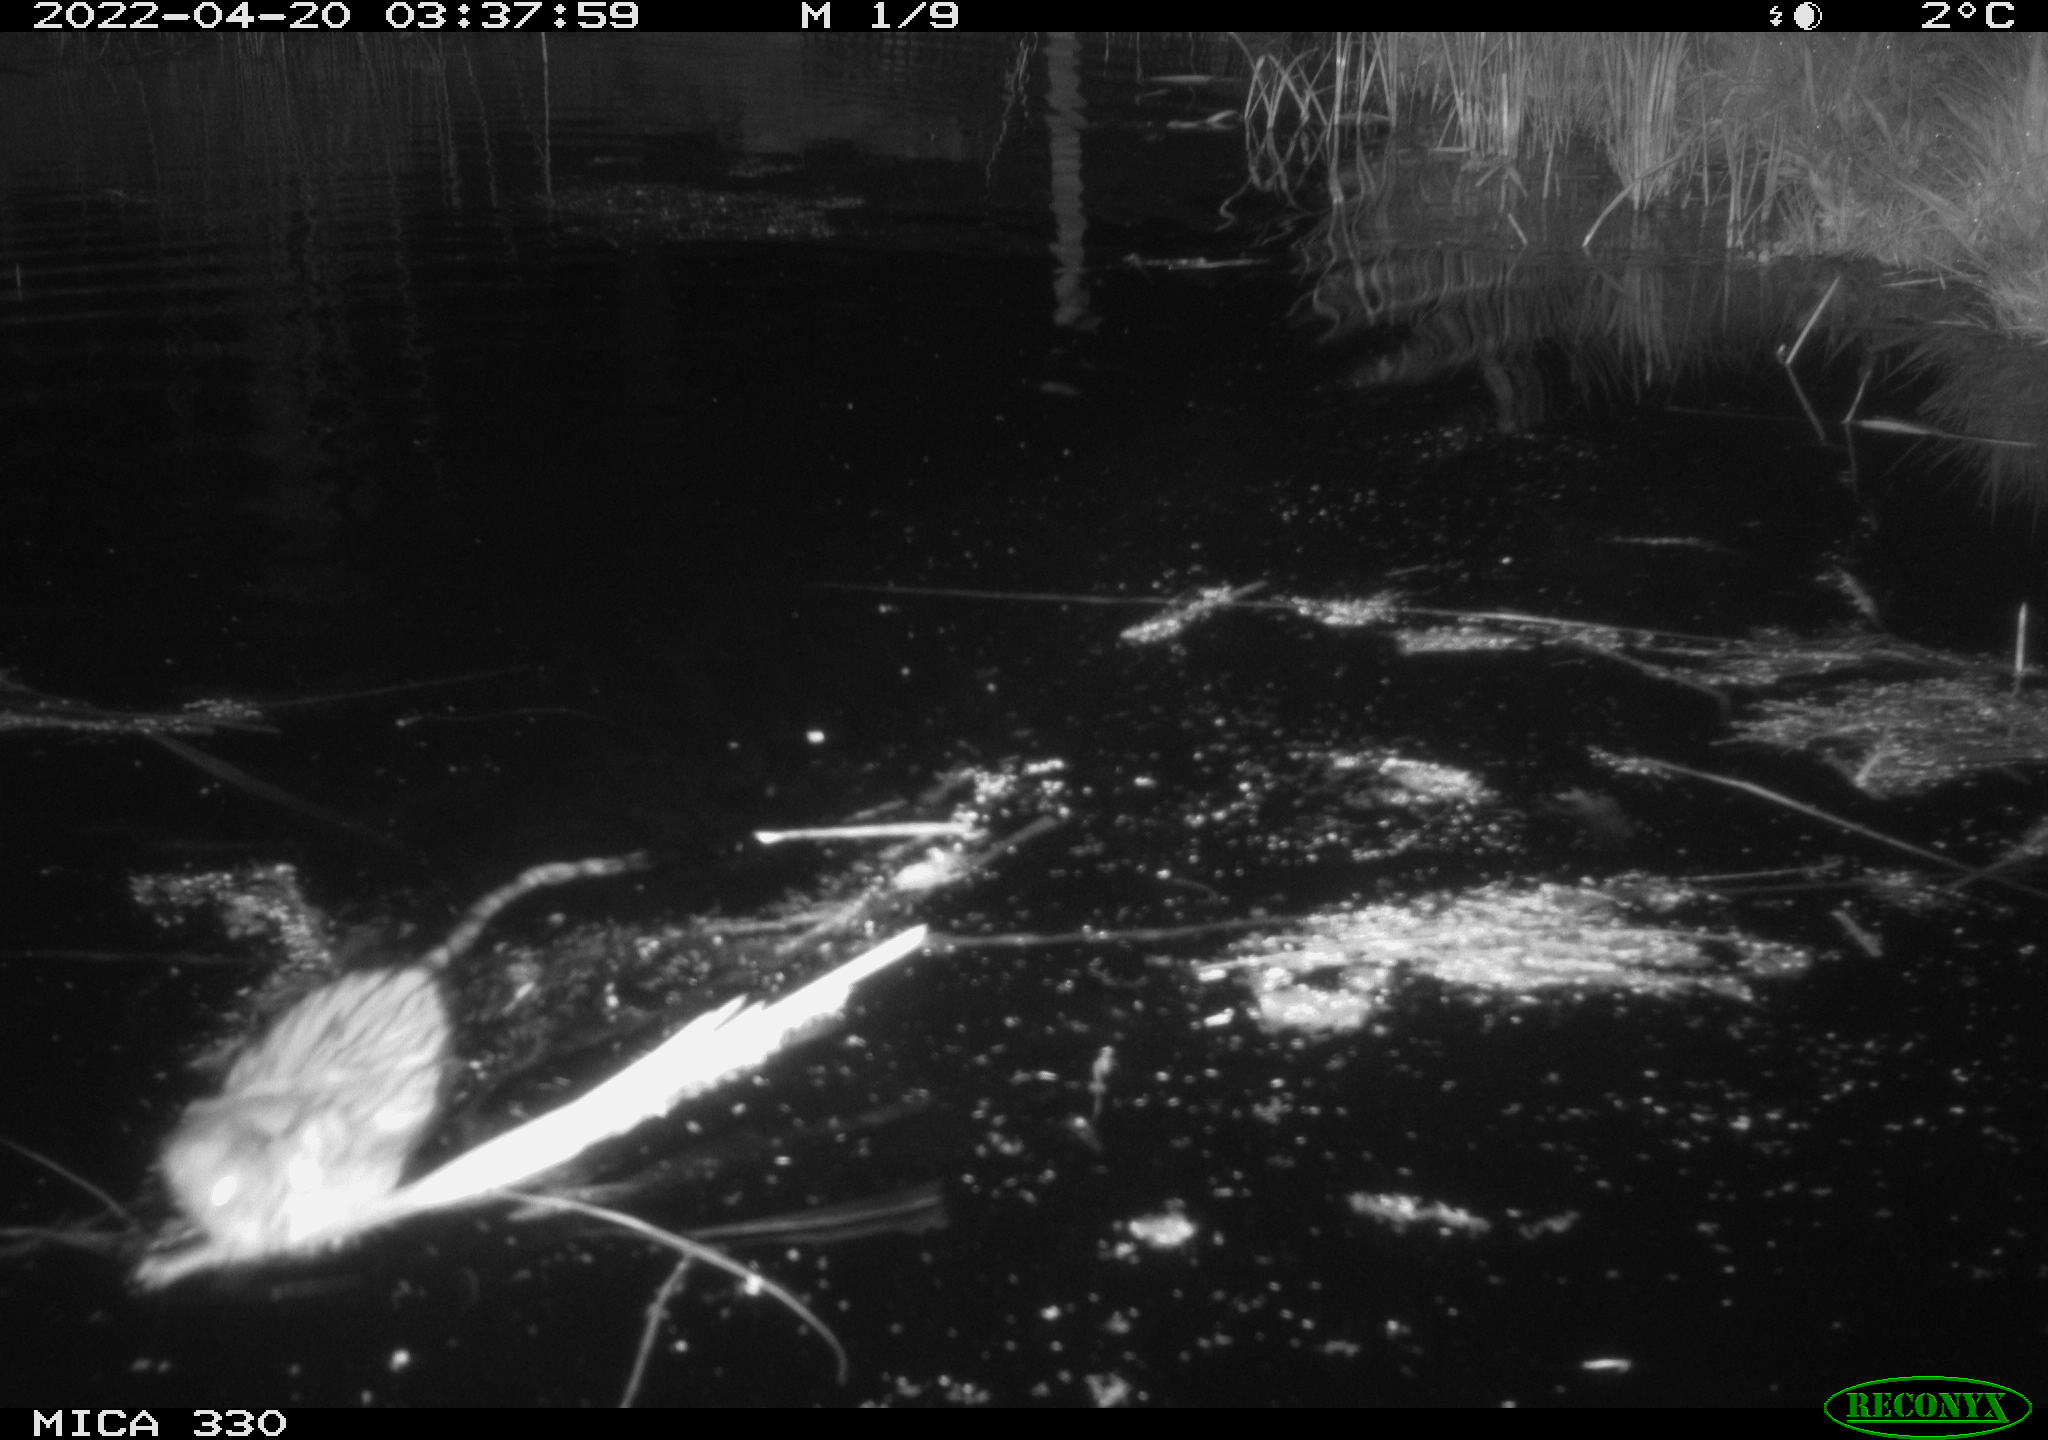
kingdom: Animalia
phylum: Chordata
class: Mammalia
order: Rodentia
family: Cricetidae
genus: Ondatra
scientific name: Ondatra zibethicus
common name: Muskrat
